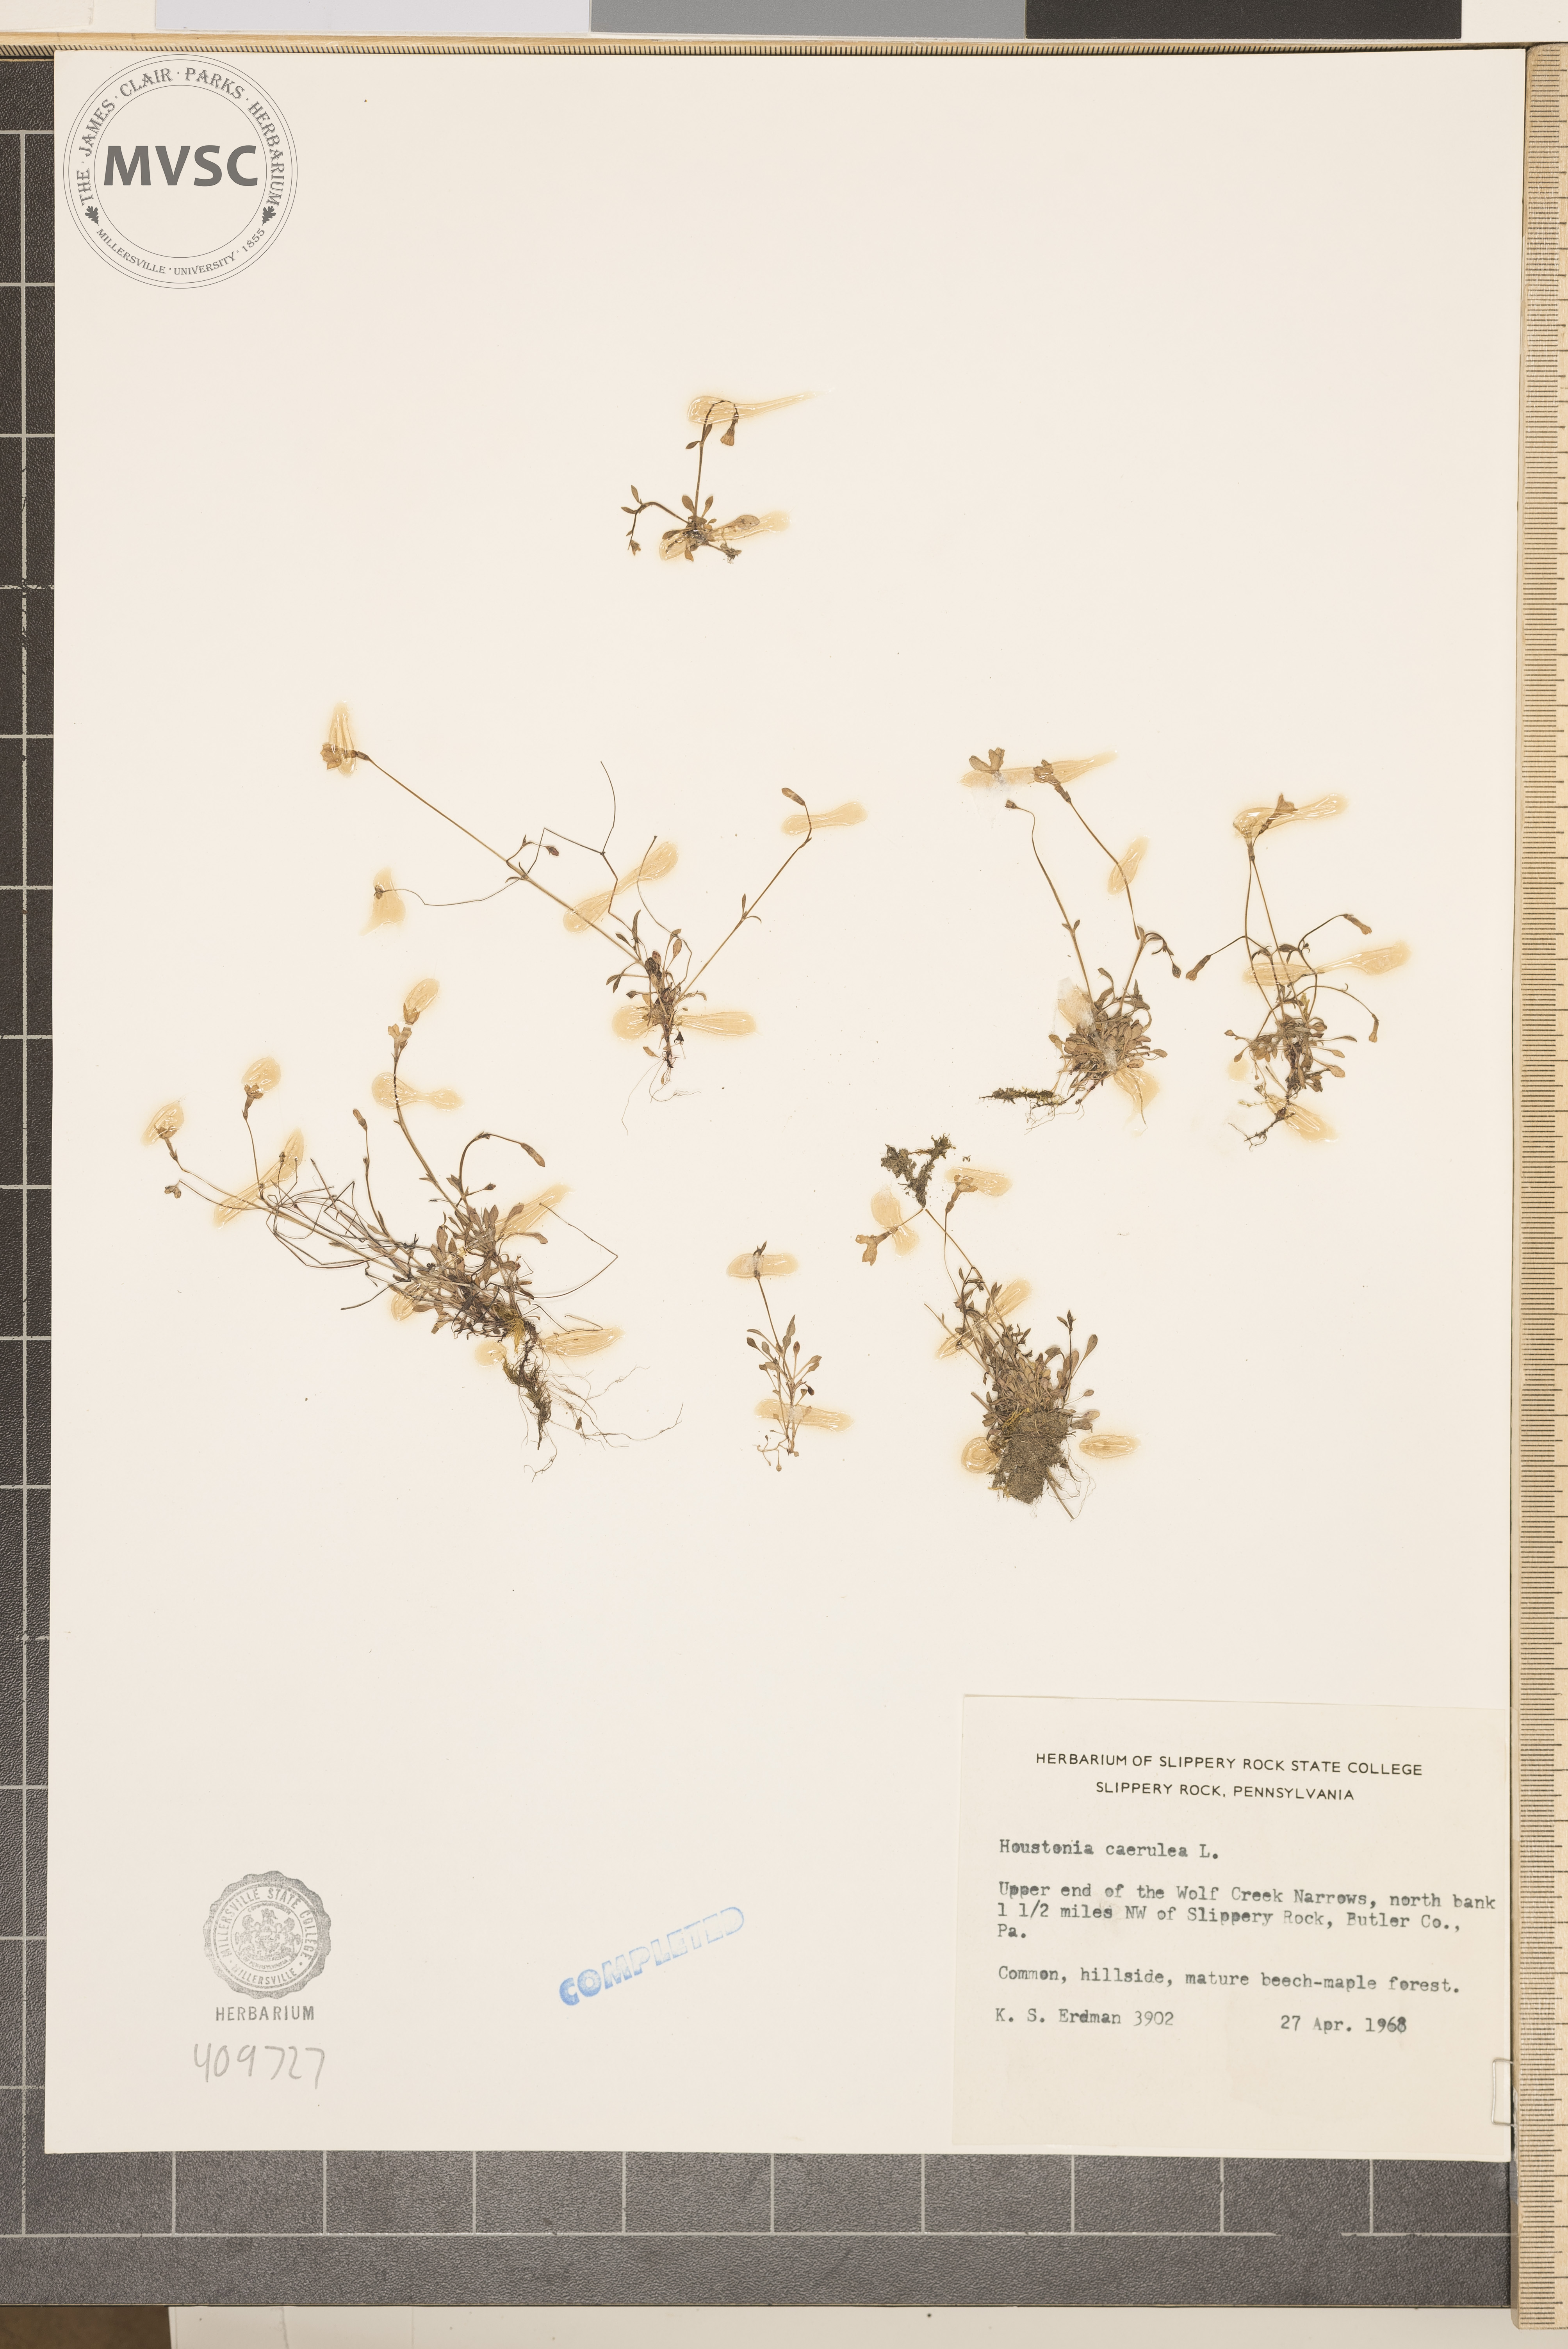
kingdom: Plantae
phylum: Tracheophyta
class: Magnoliopsida
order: Gentianales
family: Rubiaceae
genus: Houstonia
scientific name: Houstonia caerulea
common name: Bluets
